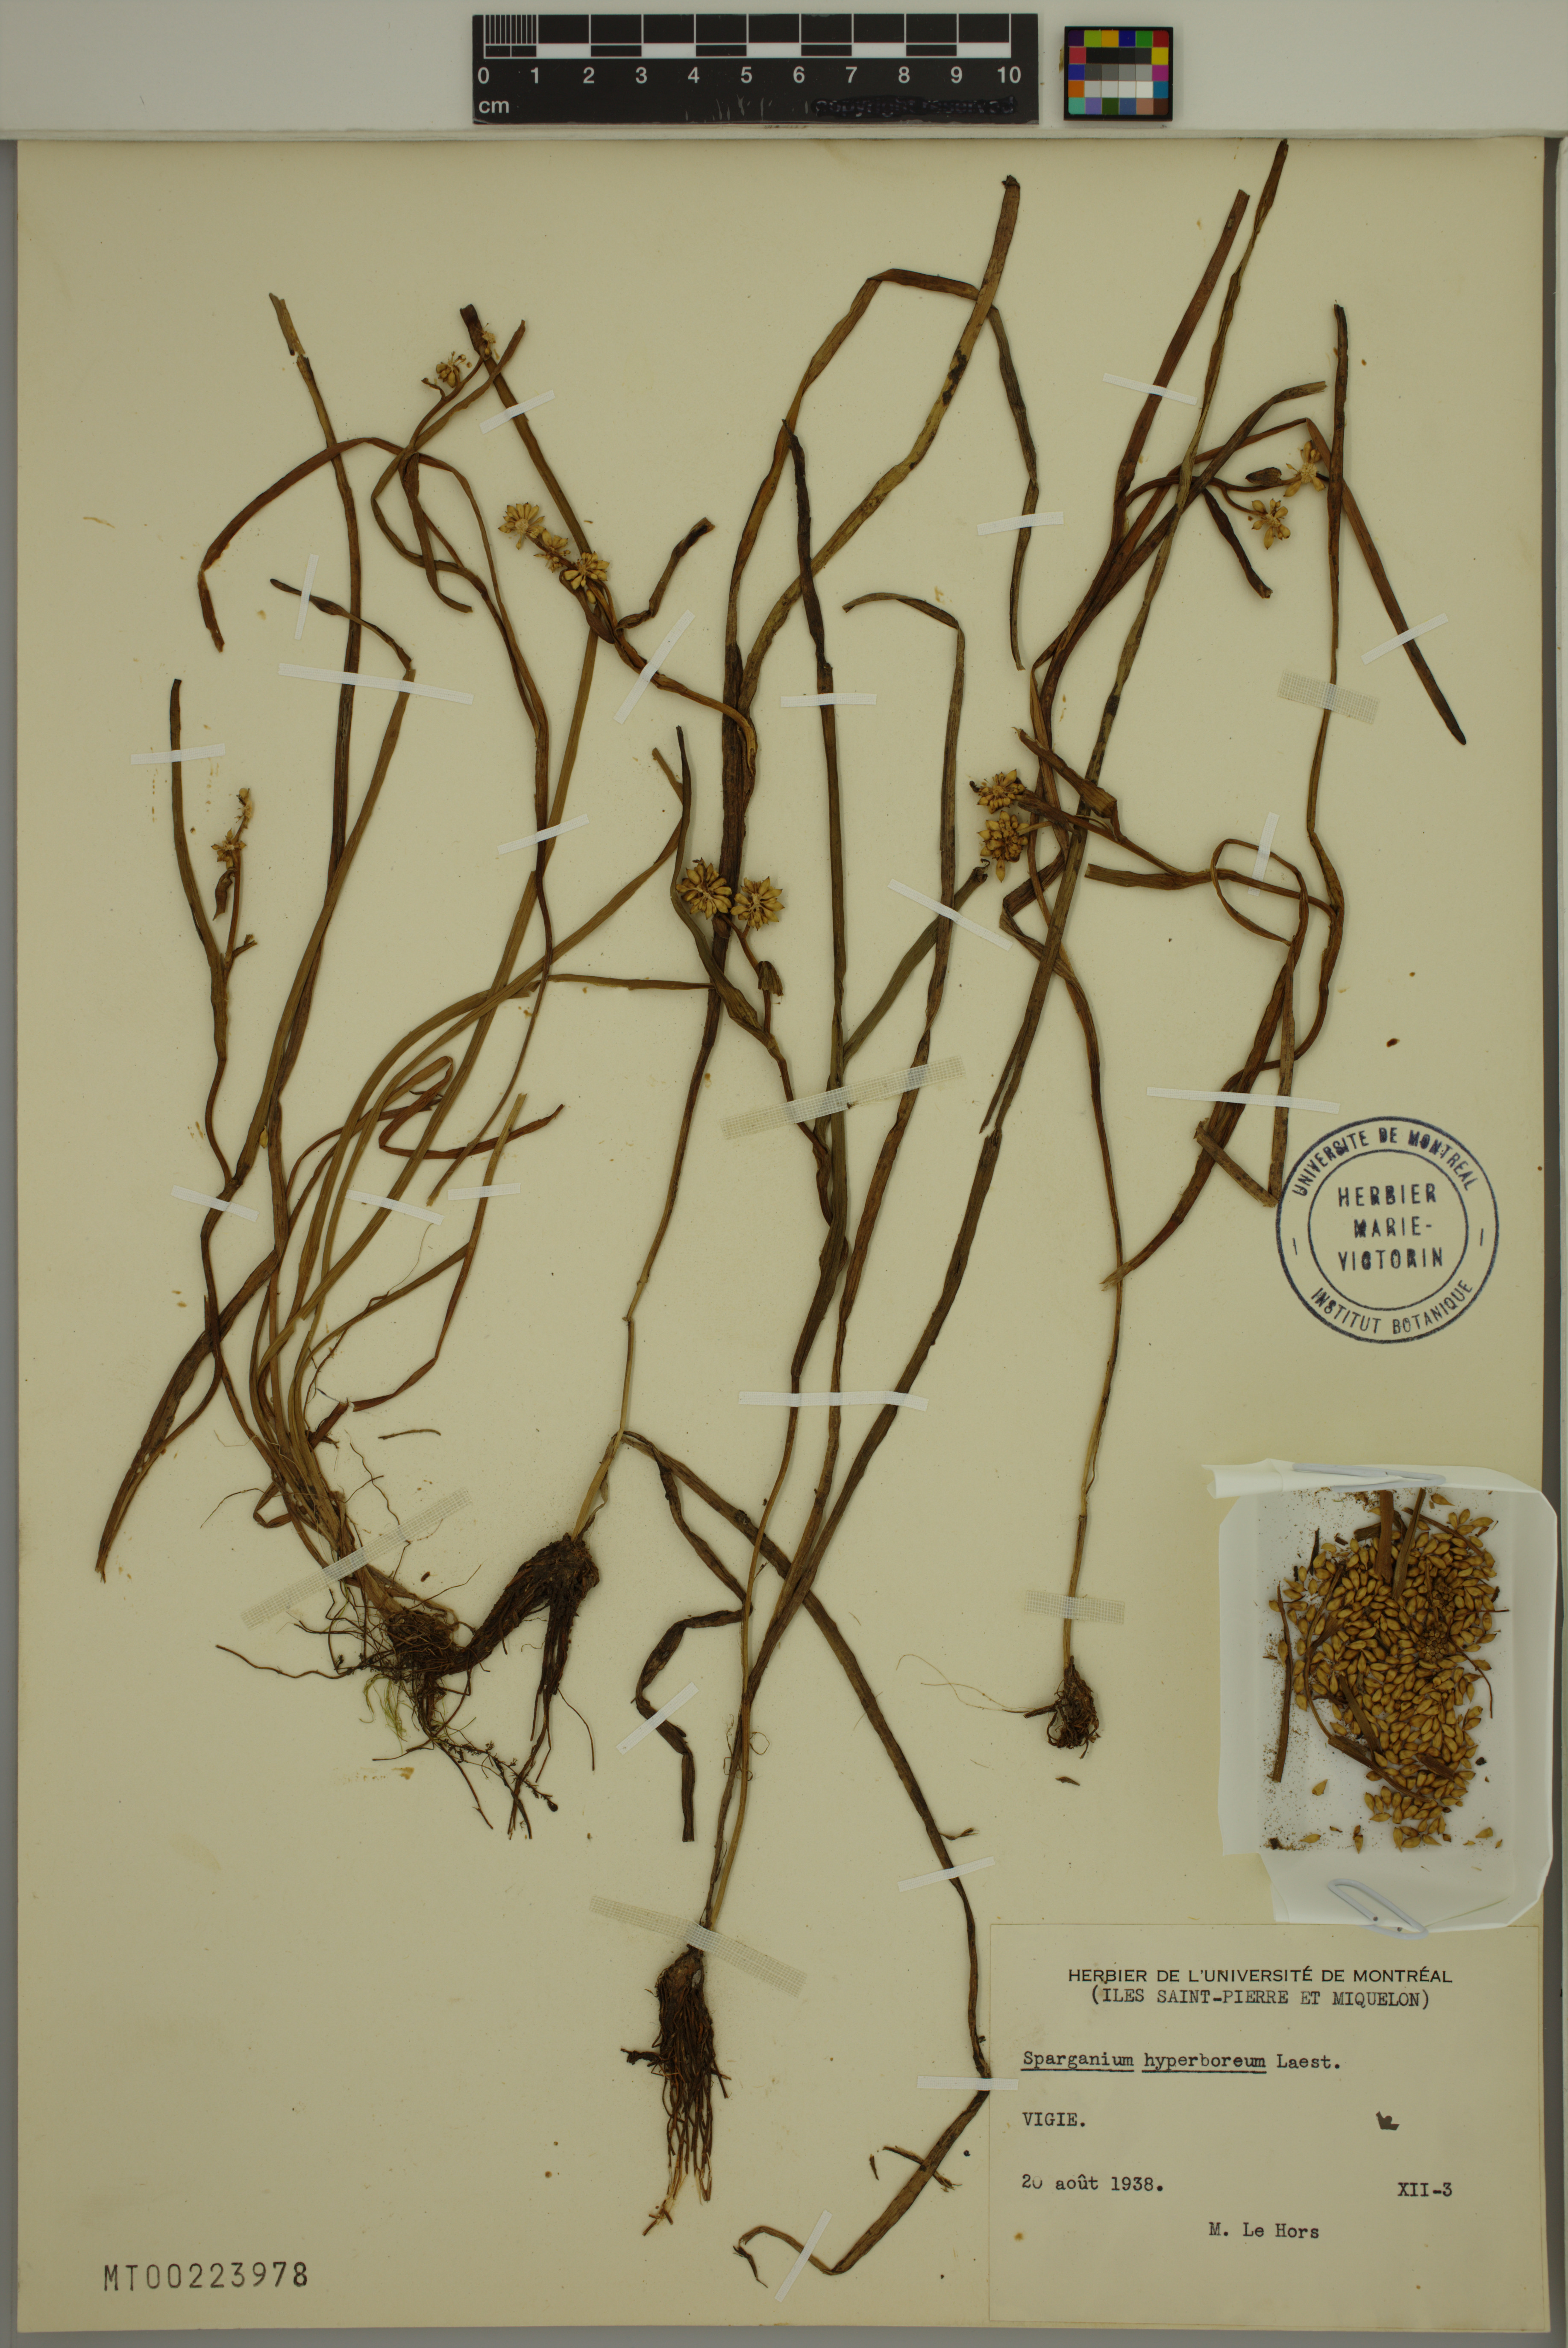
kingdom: Plantae
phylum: Tracheophyta
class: Liliopsida
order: Poales
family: Typhaceae
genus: Sparganium
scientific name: Sparganium hyperboreum
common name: Arctic burreed
